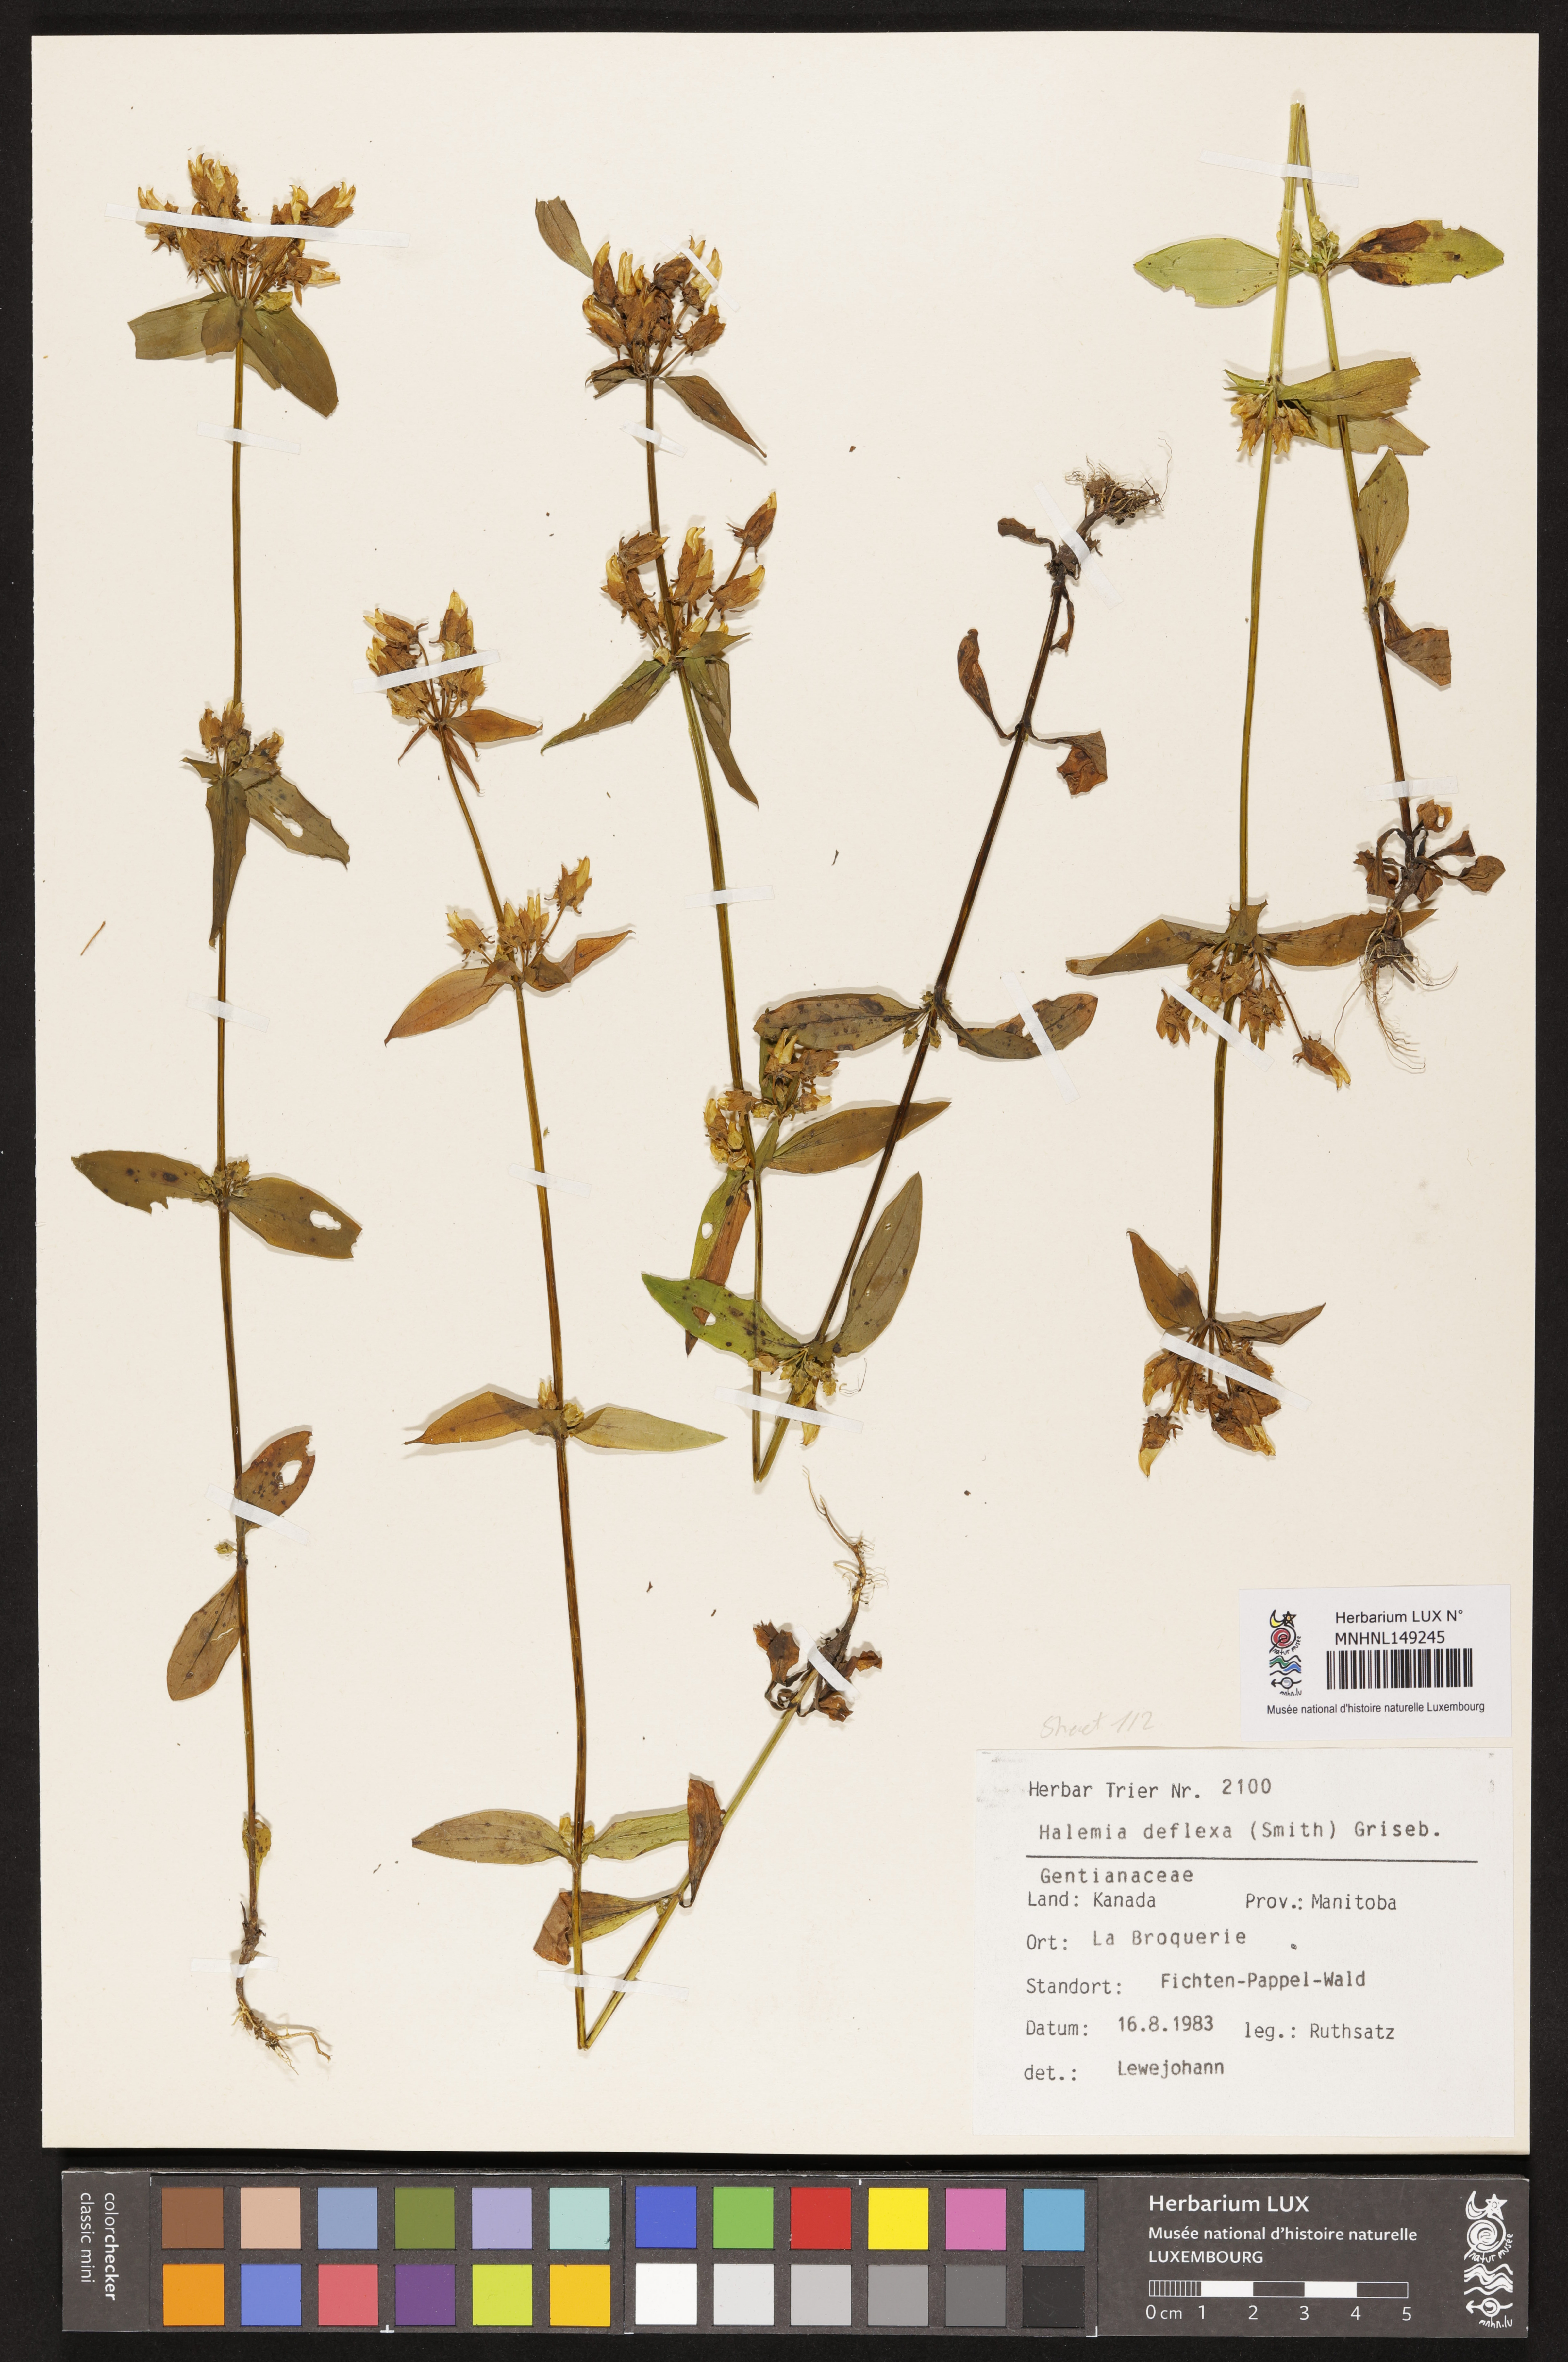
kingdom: Plantae
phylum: Tracheophyta
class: Magnoliopsida
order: Gentianales
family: Gentianaceae
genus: Halenia
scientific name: Halenia deflexa
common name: American spurred gentian
